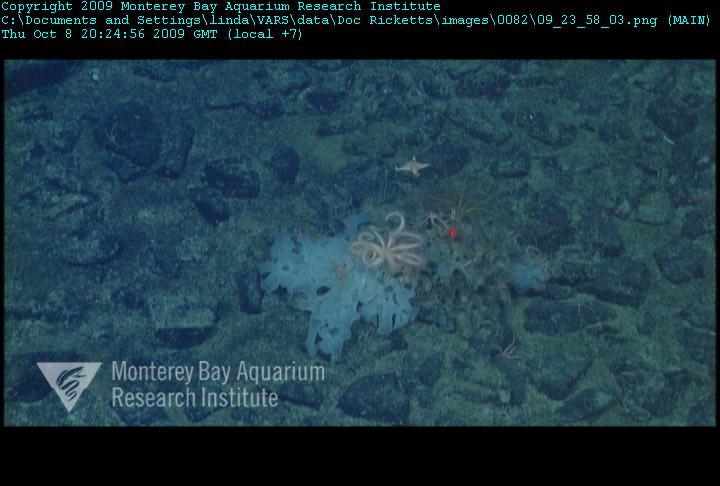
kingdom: Animalia
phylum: Porifera
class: Hexactinellida
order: Sceptrulophora
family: Farreidae
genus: Farrea
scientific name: Farrea
